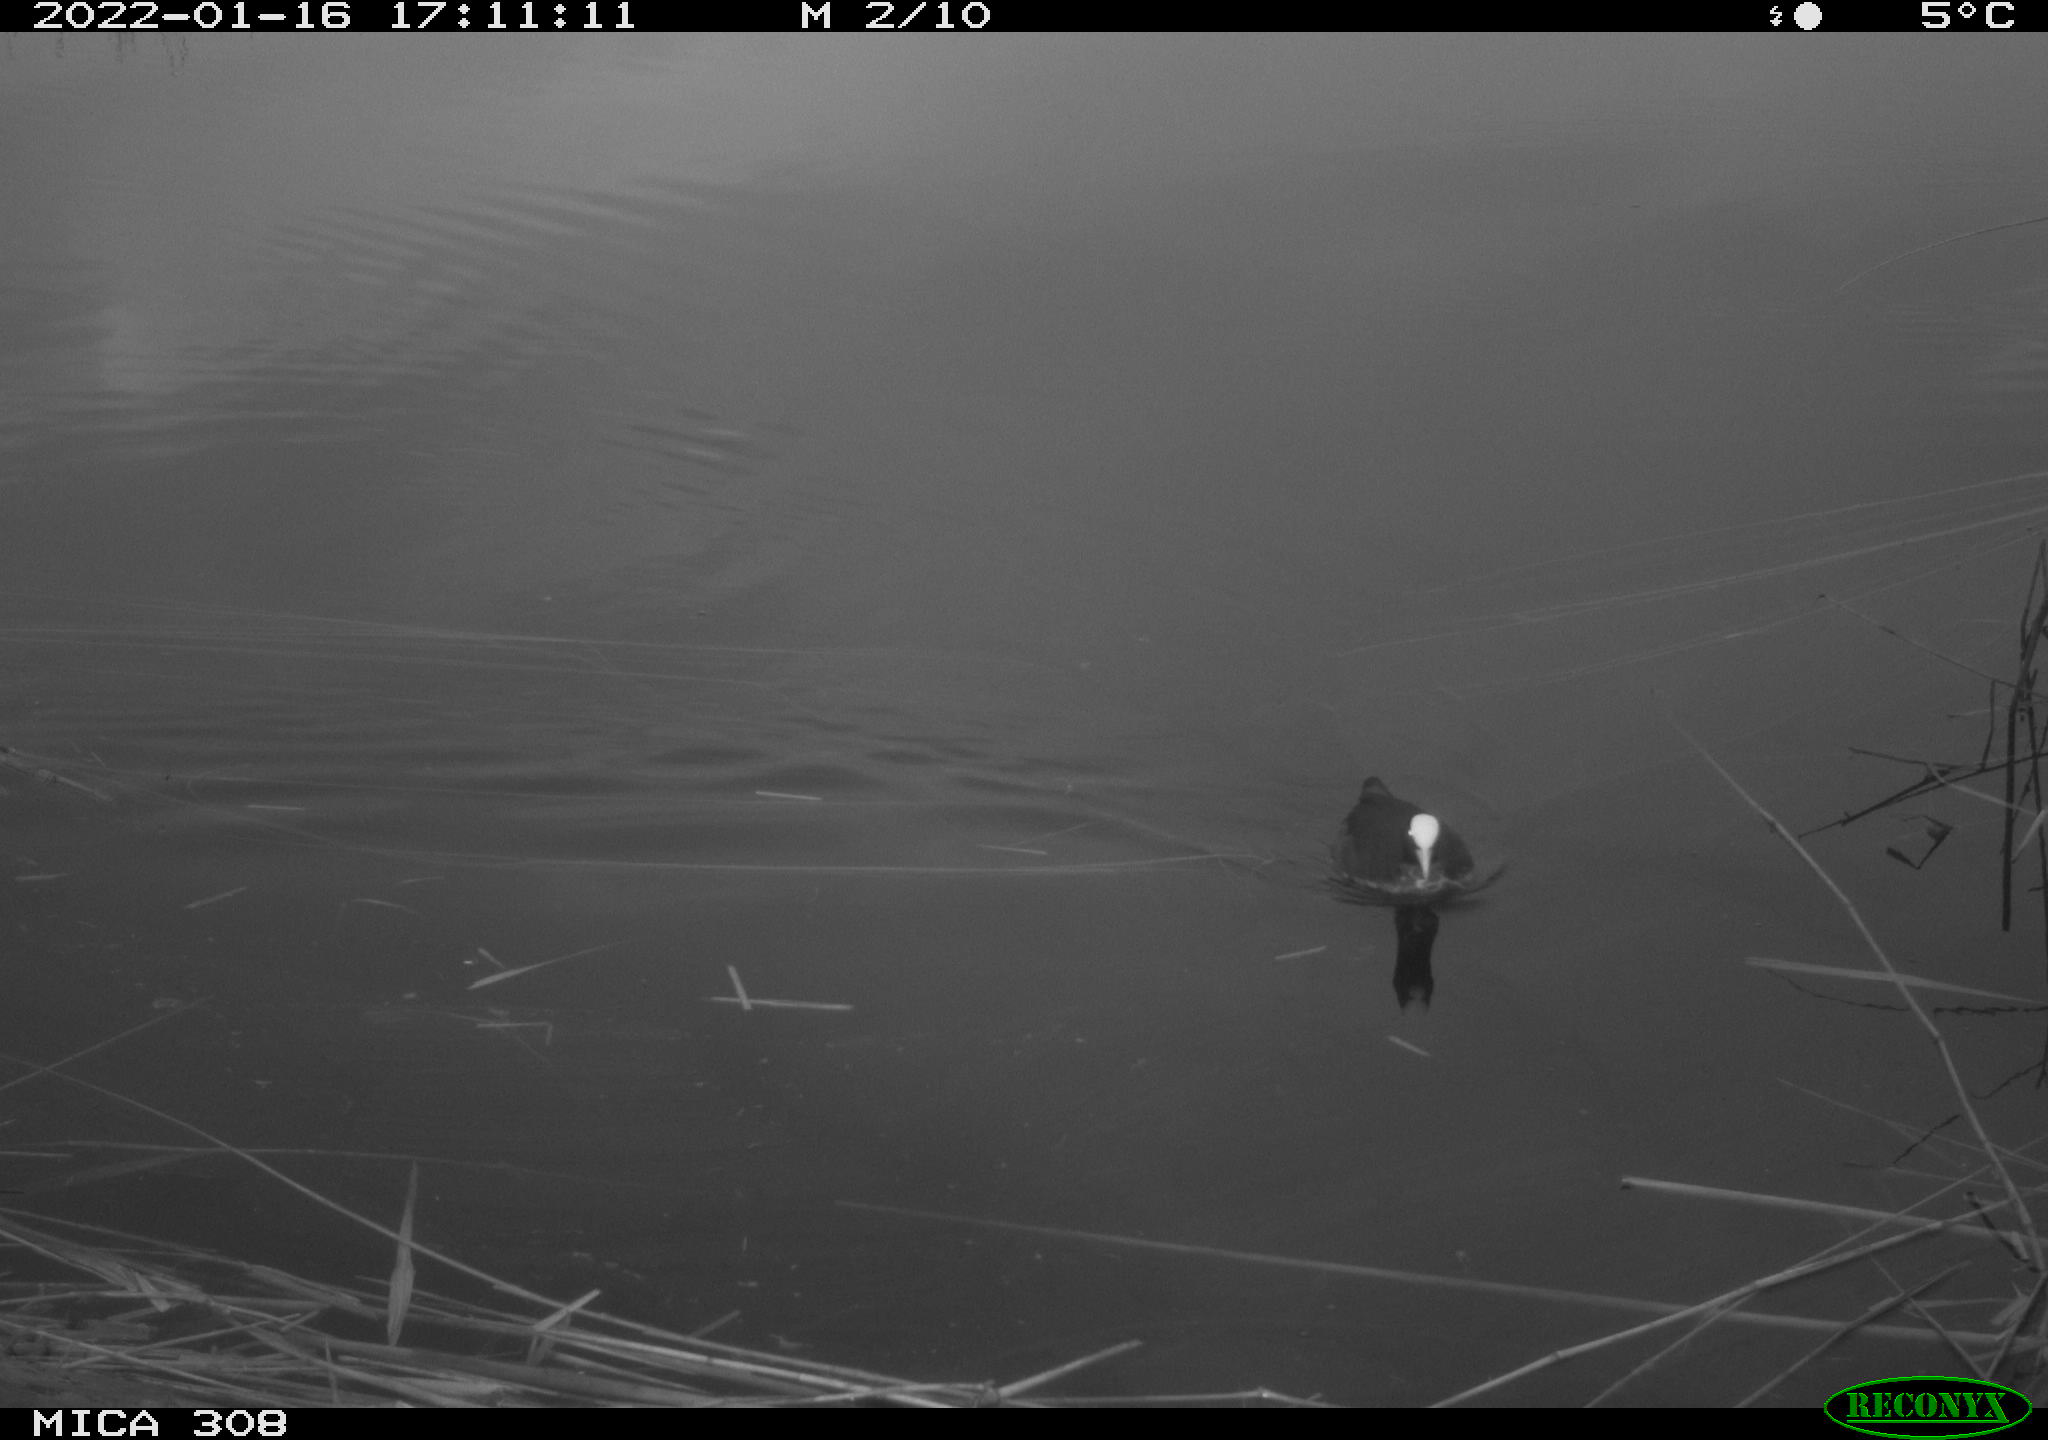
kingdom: Animalia
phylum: Chordata
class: Aves
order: Gruiformes
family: Rallidae
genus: Fulica
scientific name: Fulica atra
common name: Eurasian coot
